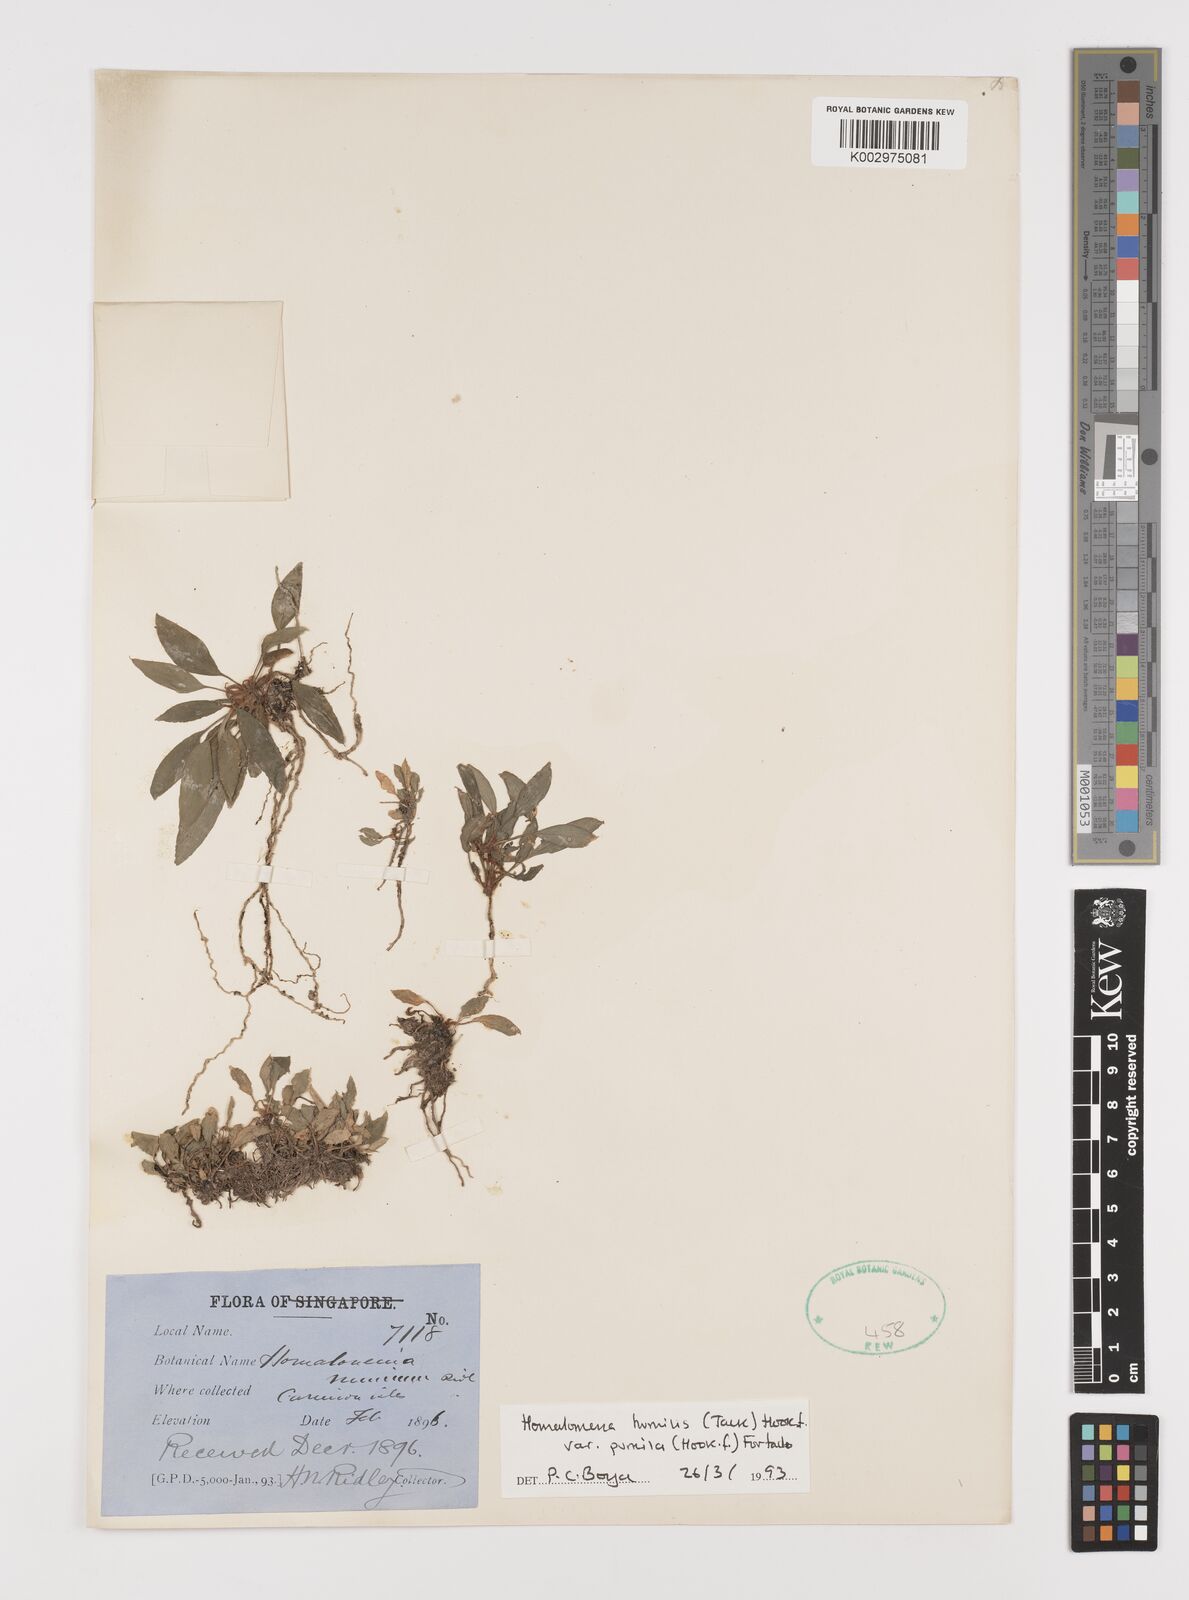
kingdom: Plantae
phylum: Tracheophyta
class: Liliopsida
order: Alismatales
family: Araceae
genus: Homalomena
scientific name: Homalomena humilis
